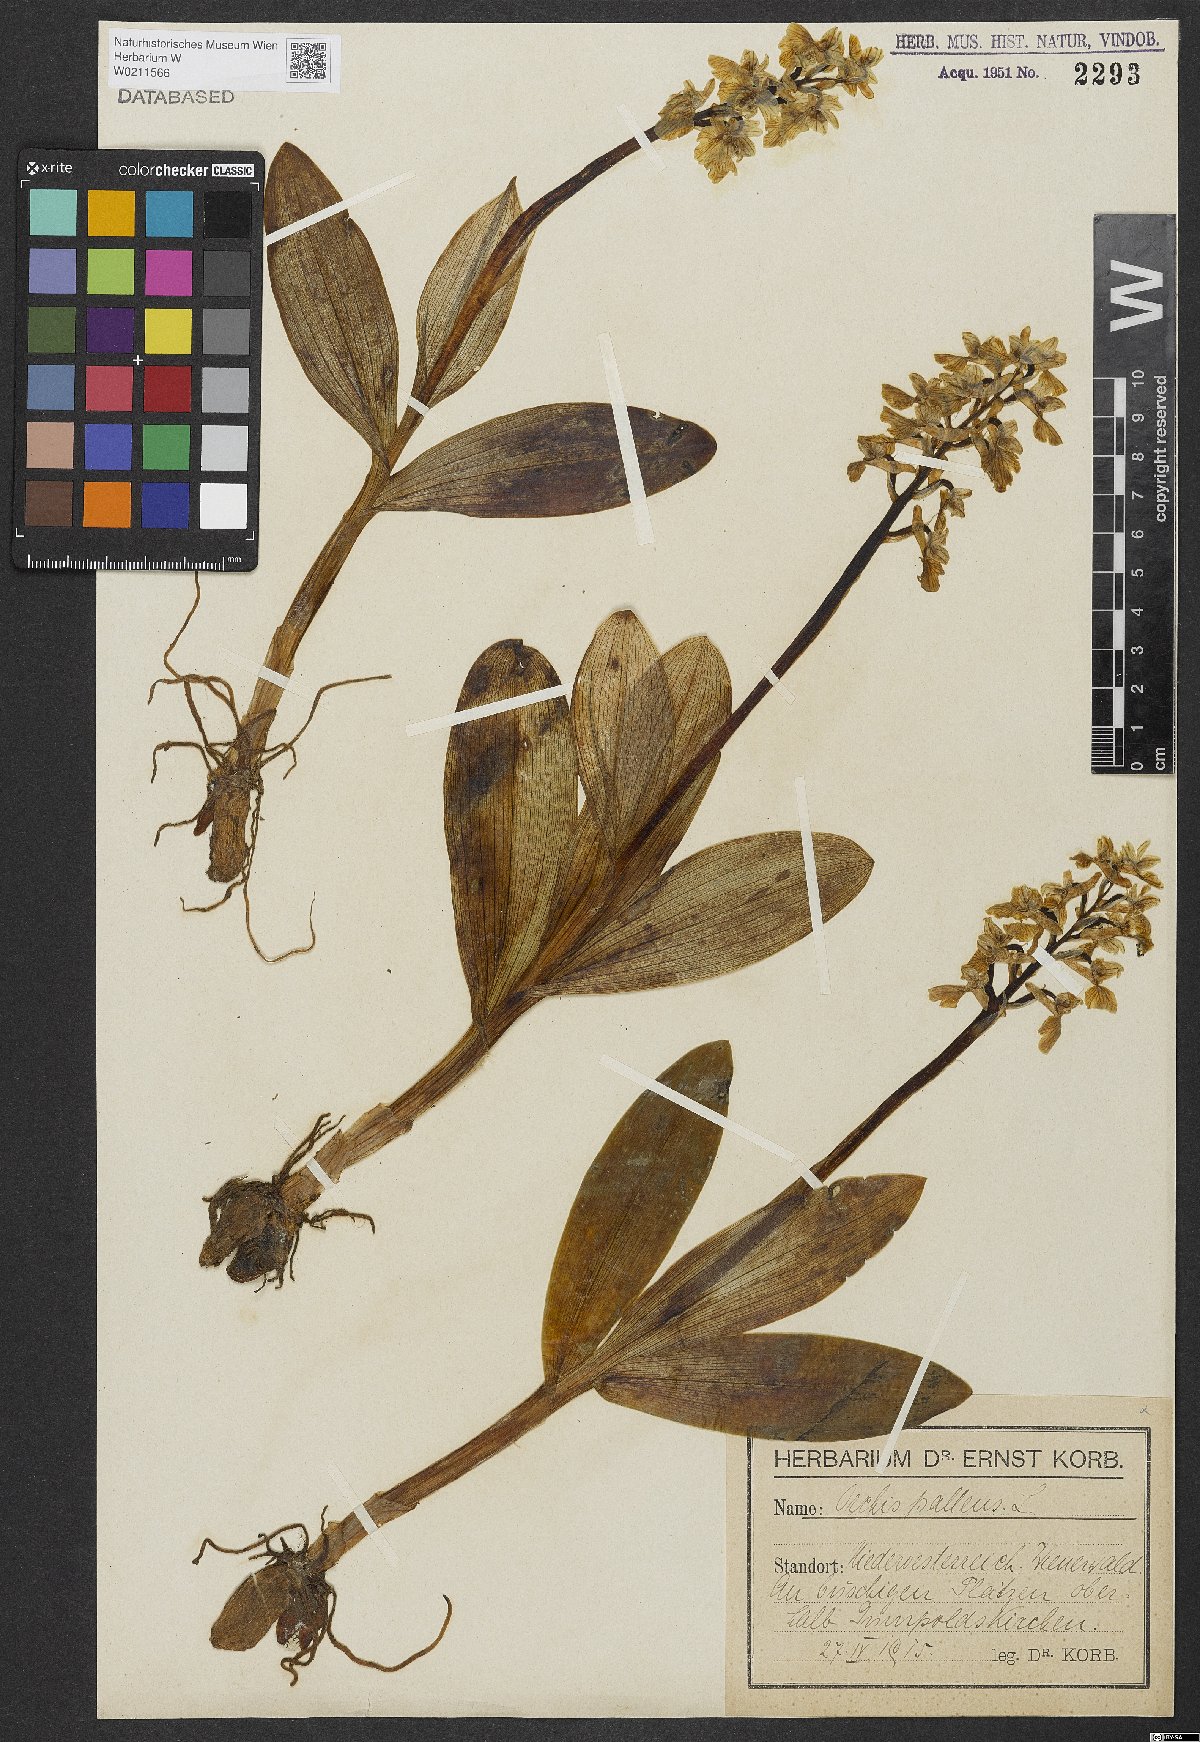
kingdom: Plantae
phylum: Tracheophyta
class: Liliopsida
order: Asparagales
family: Orchidaceae
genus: Orchis
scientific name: Orchis pallens
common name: Pale-flowered orchid
